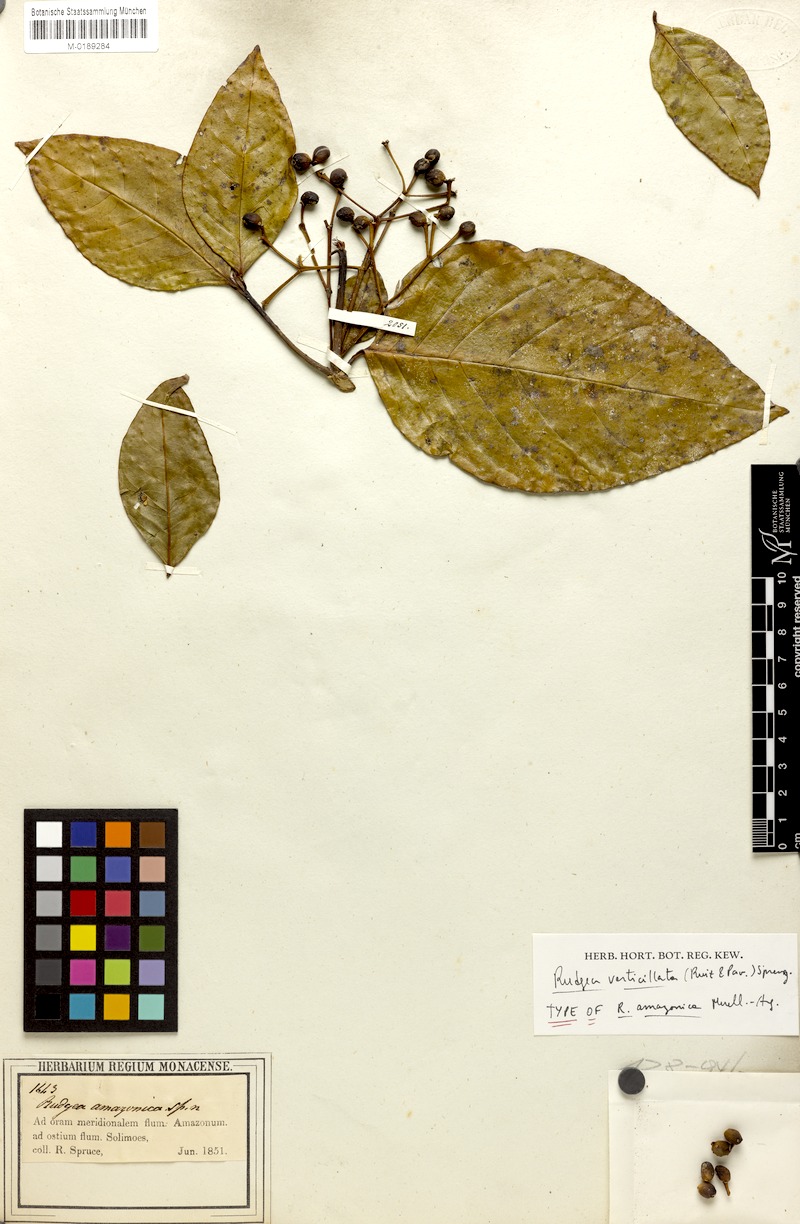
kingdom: Plantae
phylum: Tracheophyta
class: Magnoliopsida
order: Gentianales
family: Rubiaceae
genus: Rudgea
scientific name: Rudgea verticillata
